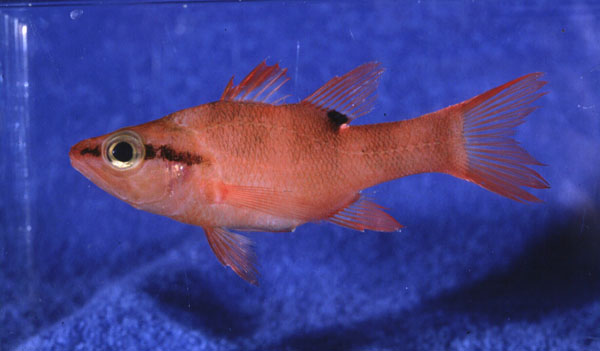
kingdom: Animalia
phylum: Chordata
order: Perciformes
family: Apogonidae
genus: Zapogon
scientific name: Zapogon evermanni
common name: Cave cardinalfish
